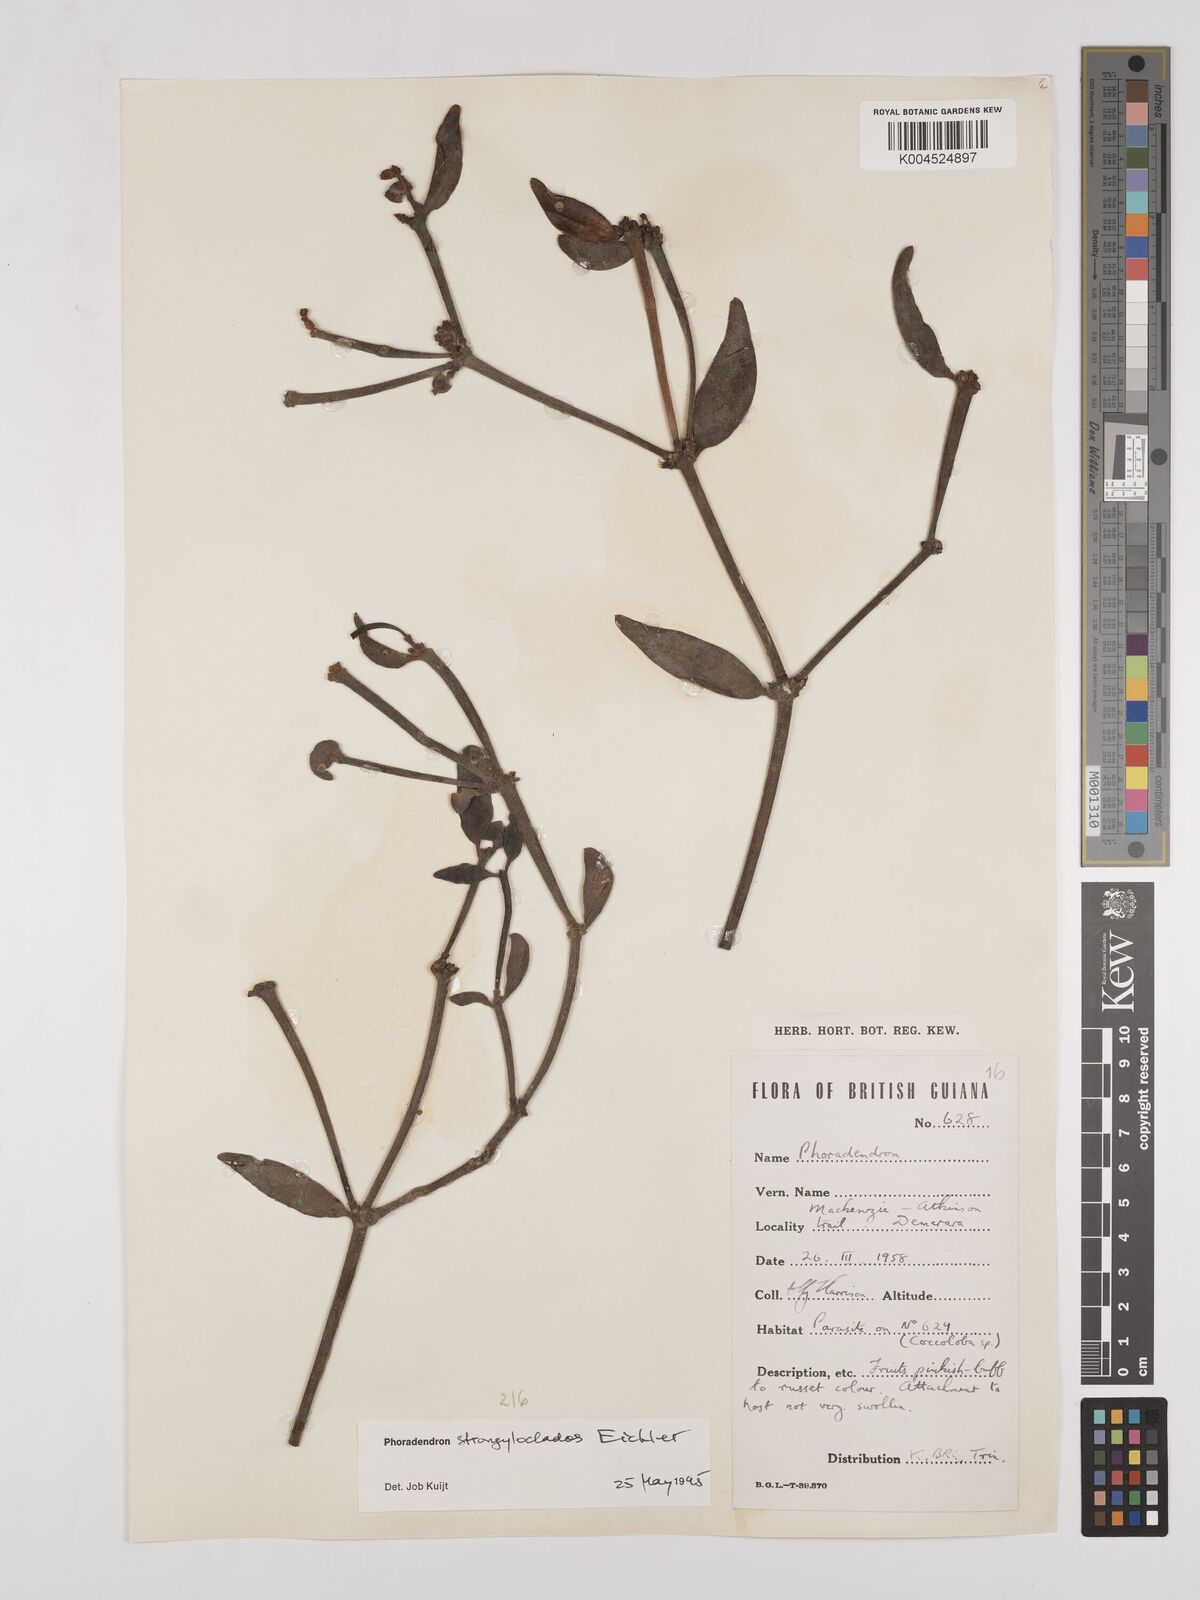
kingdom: Plantae
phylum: Tracheophyta
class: Magnoliopsida
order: Santalales
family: Viscaceae
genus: Phoradendron
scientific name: Phoradendron strongyloclados
